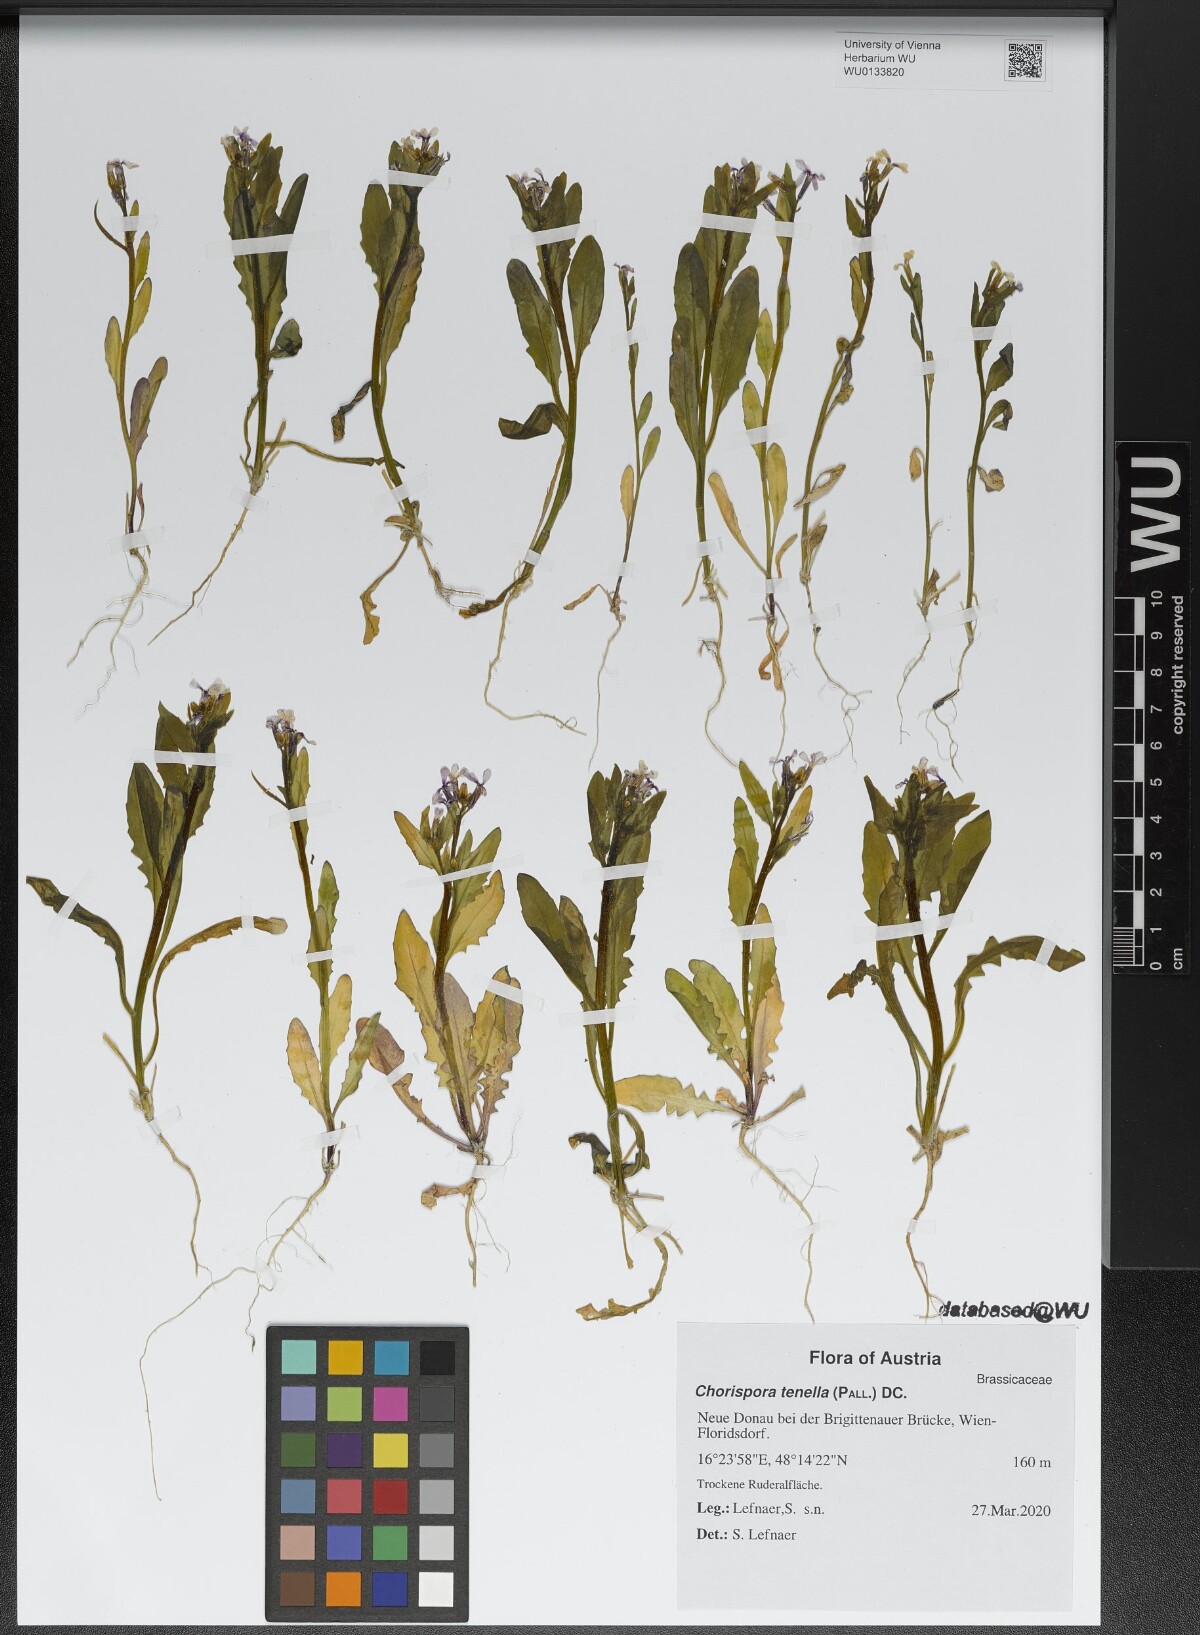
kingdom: Plantae
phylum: Tracheophyta
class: Magnoliopsida
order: Brassicales
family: Brassicaceae
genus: Chorispora
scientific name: Chorispora tenella
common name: Crossflower
